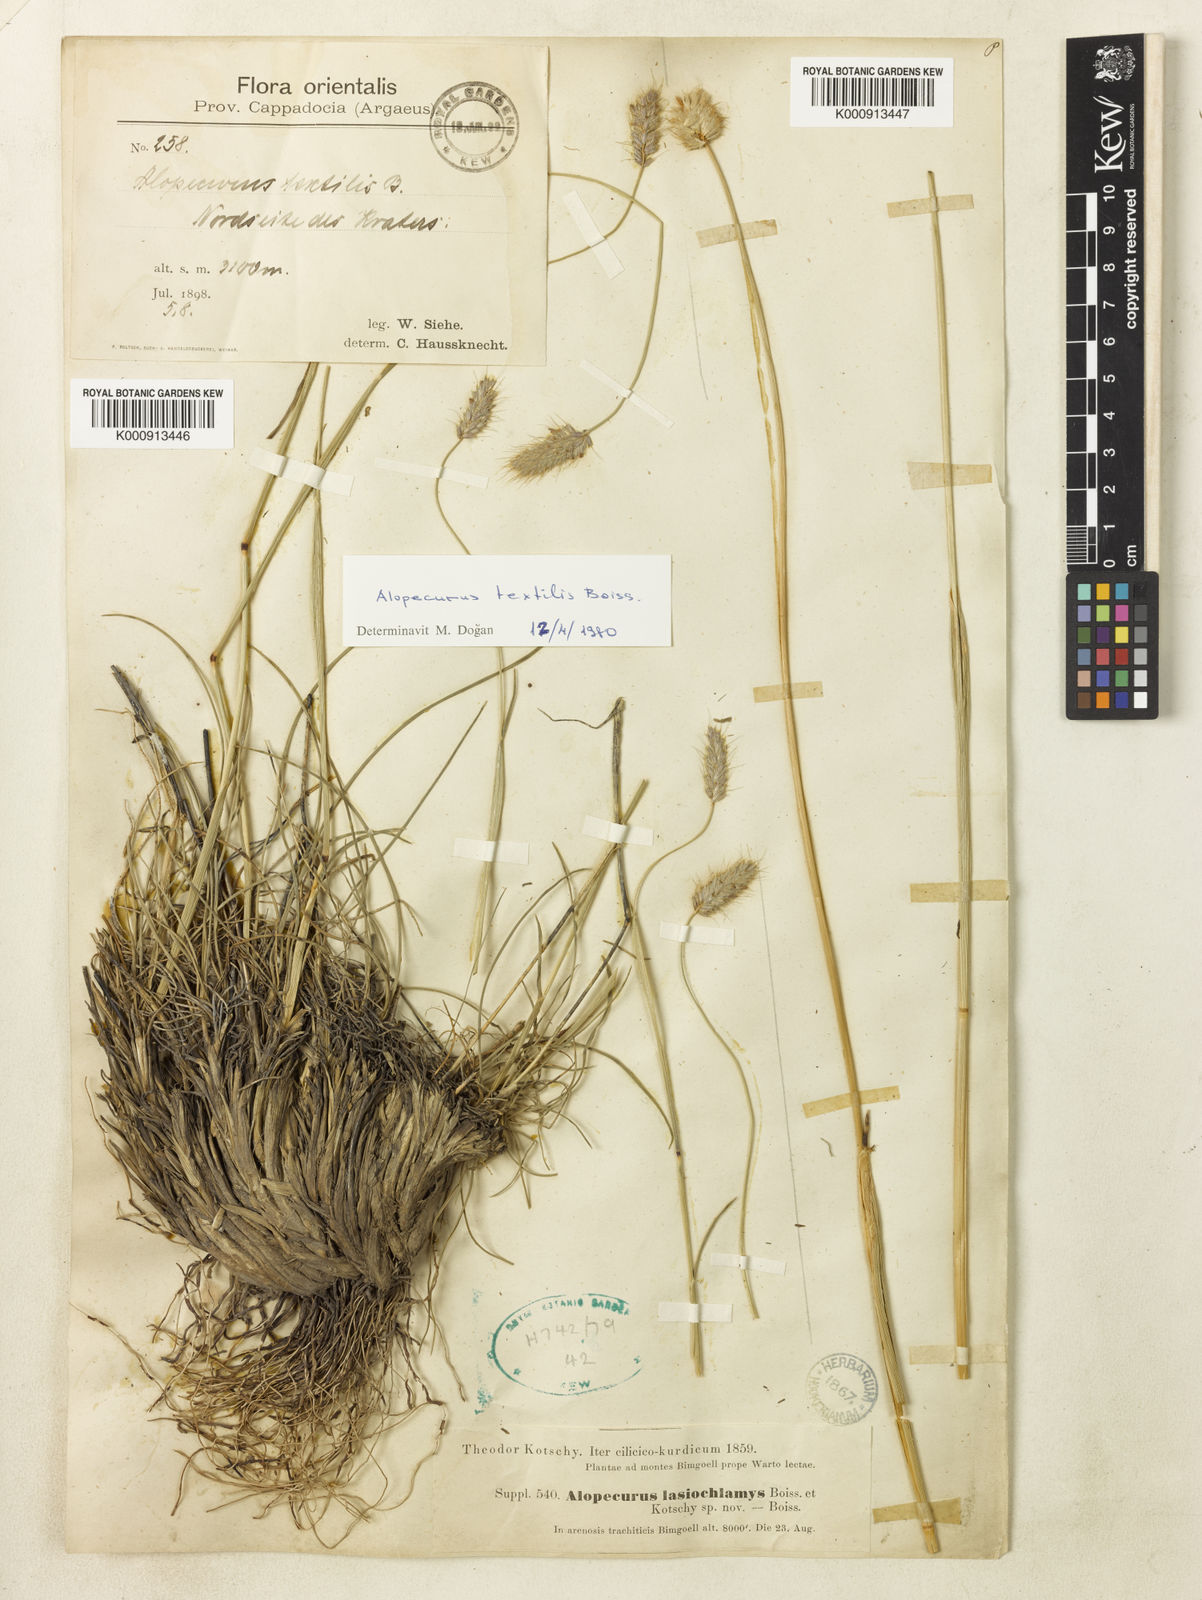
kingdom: Plantae
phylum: Tracheophyta
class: Liliopsida
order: Poales
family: Poaceae
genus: Alopecurus
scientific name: Alopecurus textilis
